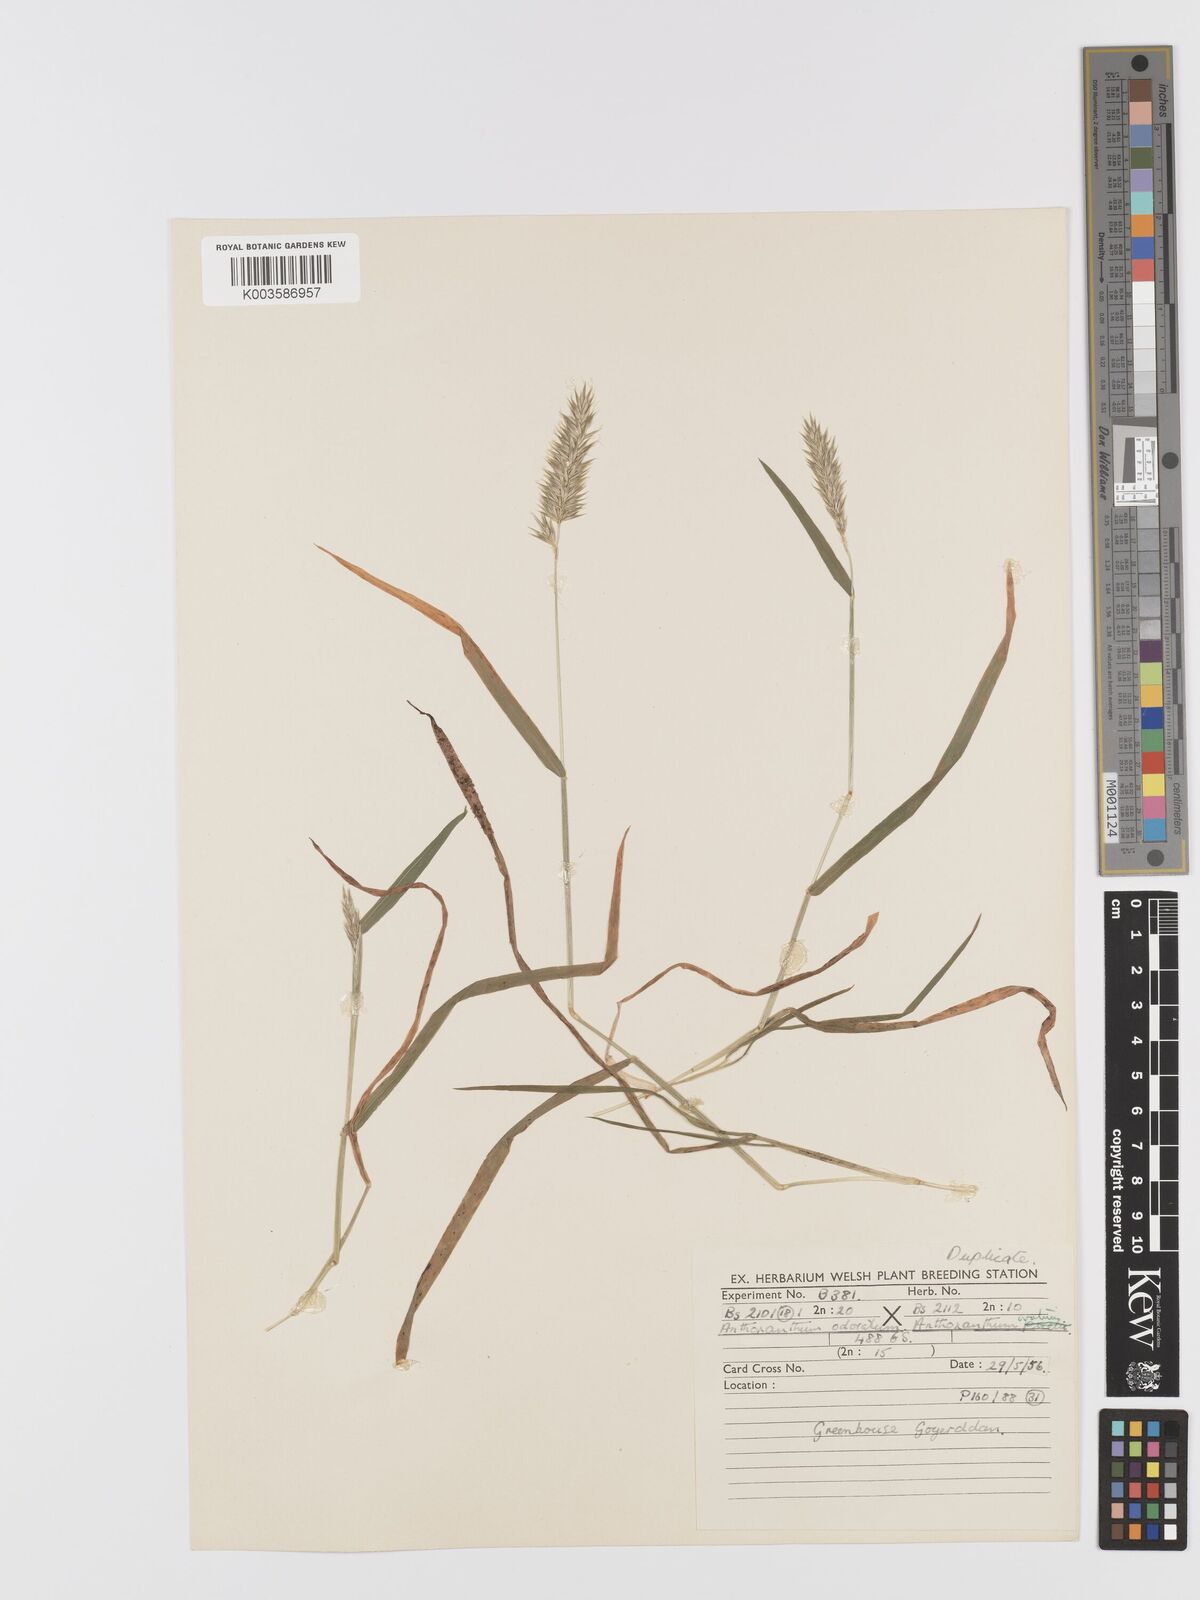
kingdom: Plantae
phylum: Tracheophyta
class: Liliopsida
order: Poales
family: Poaceae
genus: Anthoxanthum
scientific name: Anthoxanthum odoratum
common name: Sweet vernalgrass
